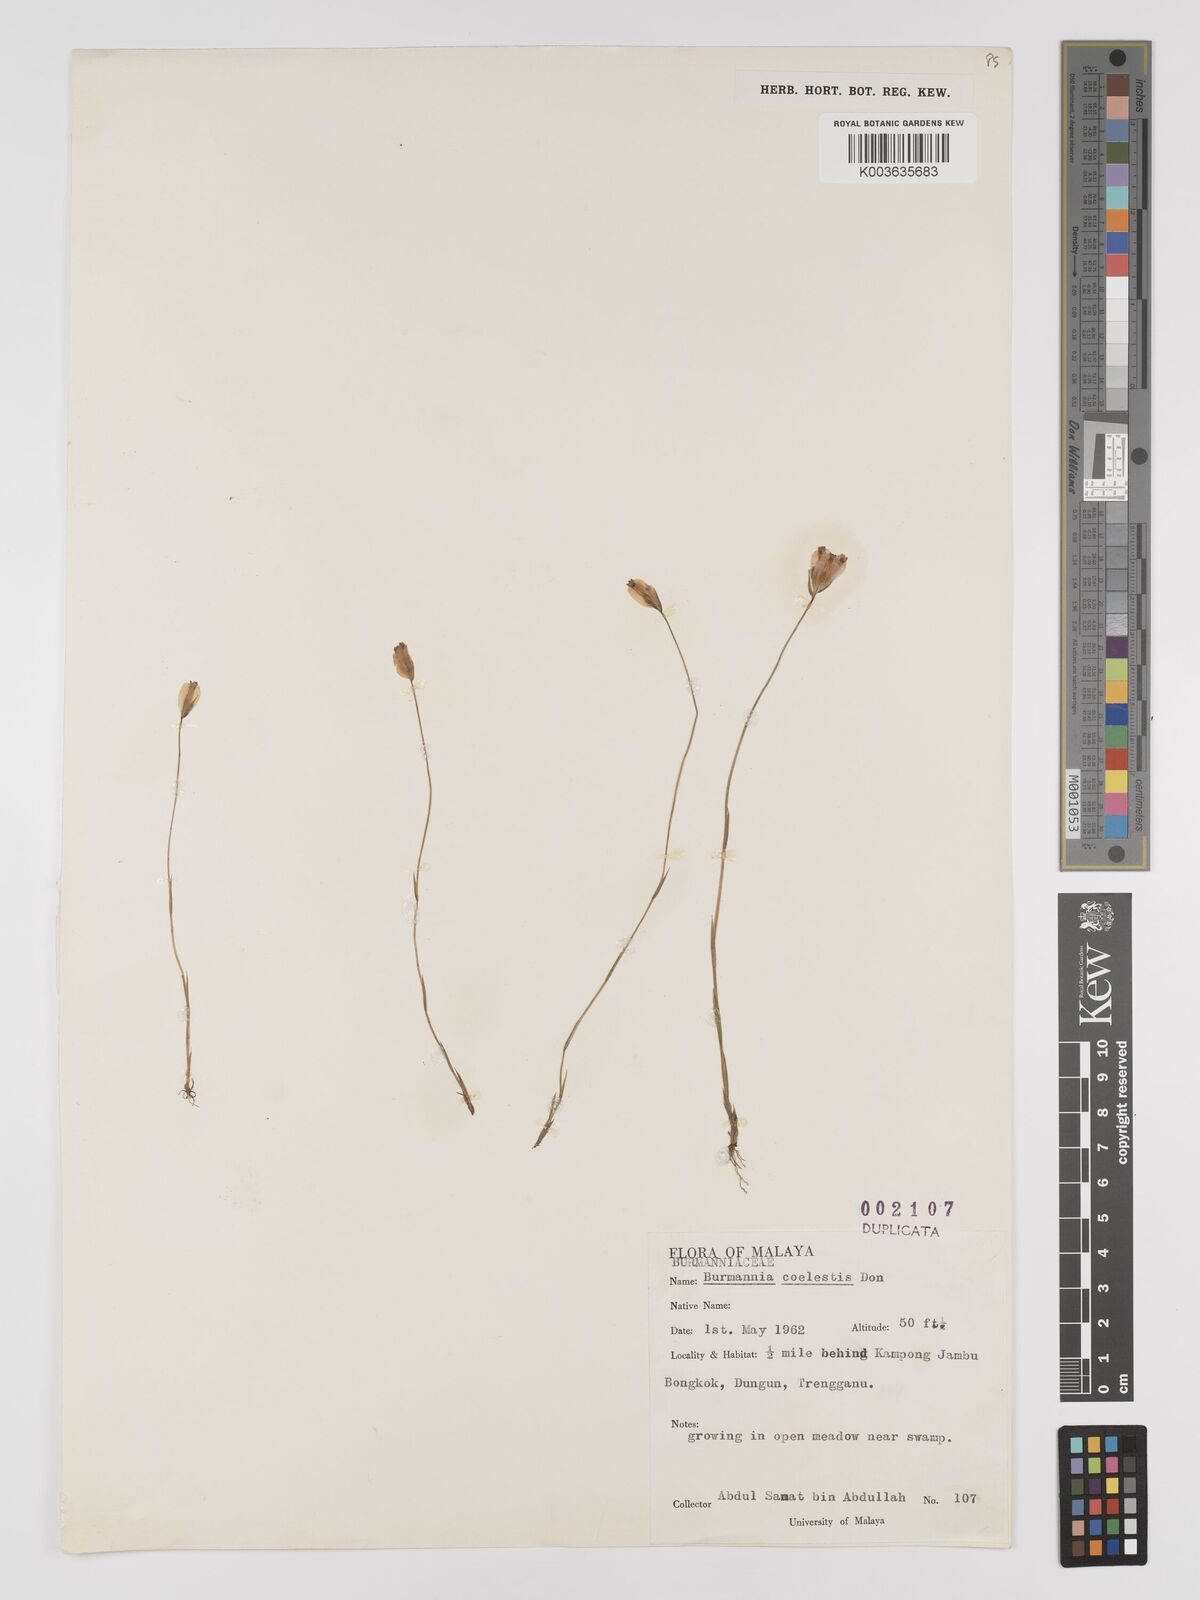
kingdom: Plantae
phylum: Tracheophyta
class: Liliopsida
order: Dioscoreales
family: Burmanniaceae
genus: Burmannia
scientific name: Burmannia coelestis
